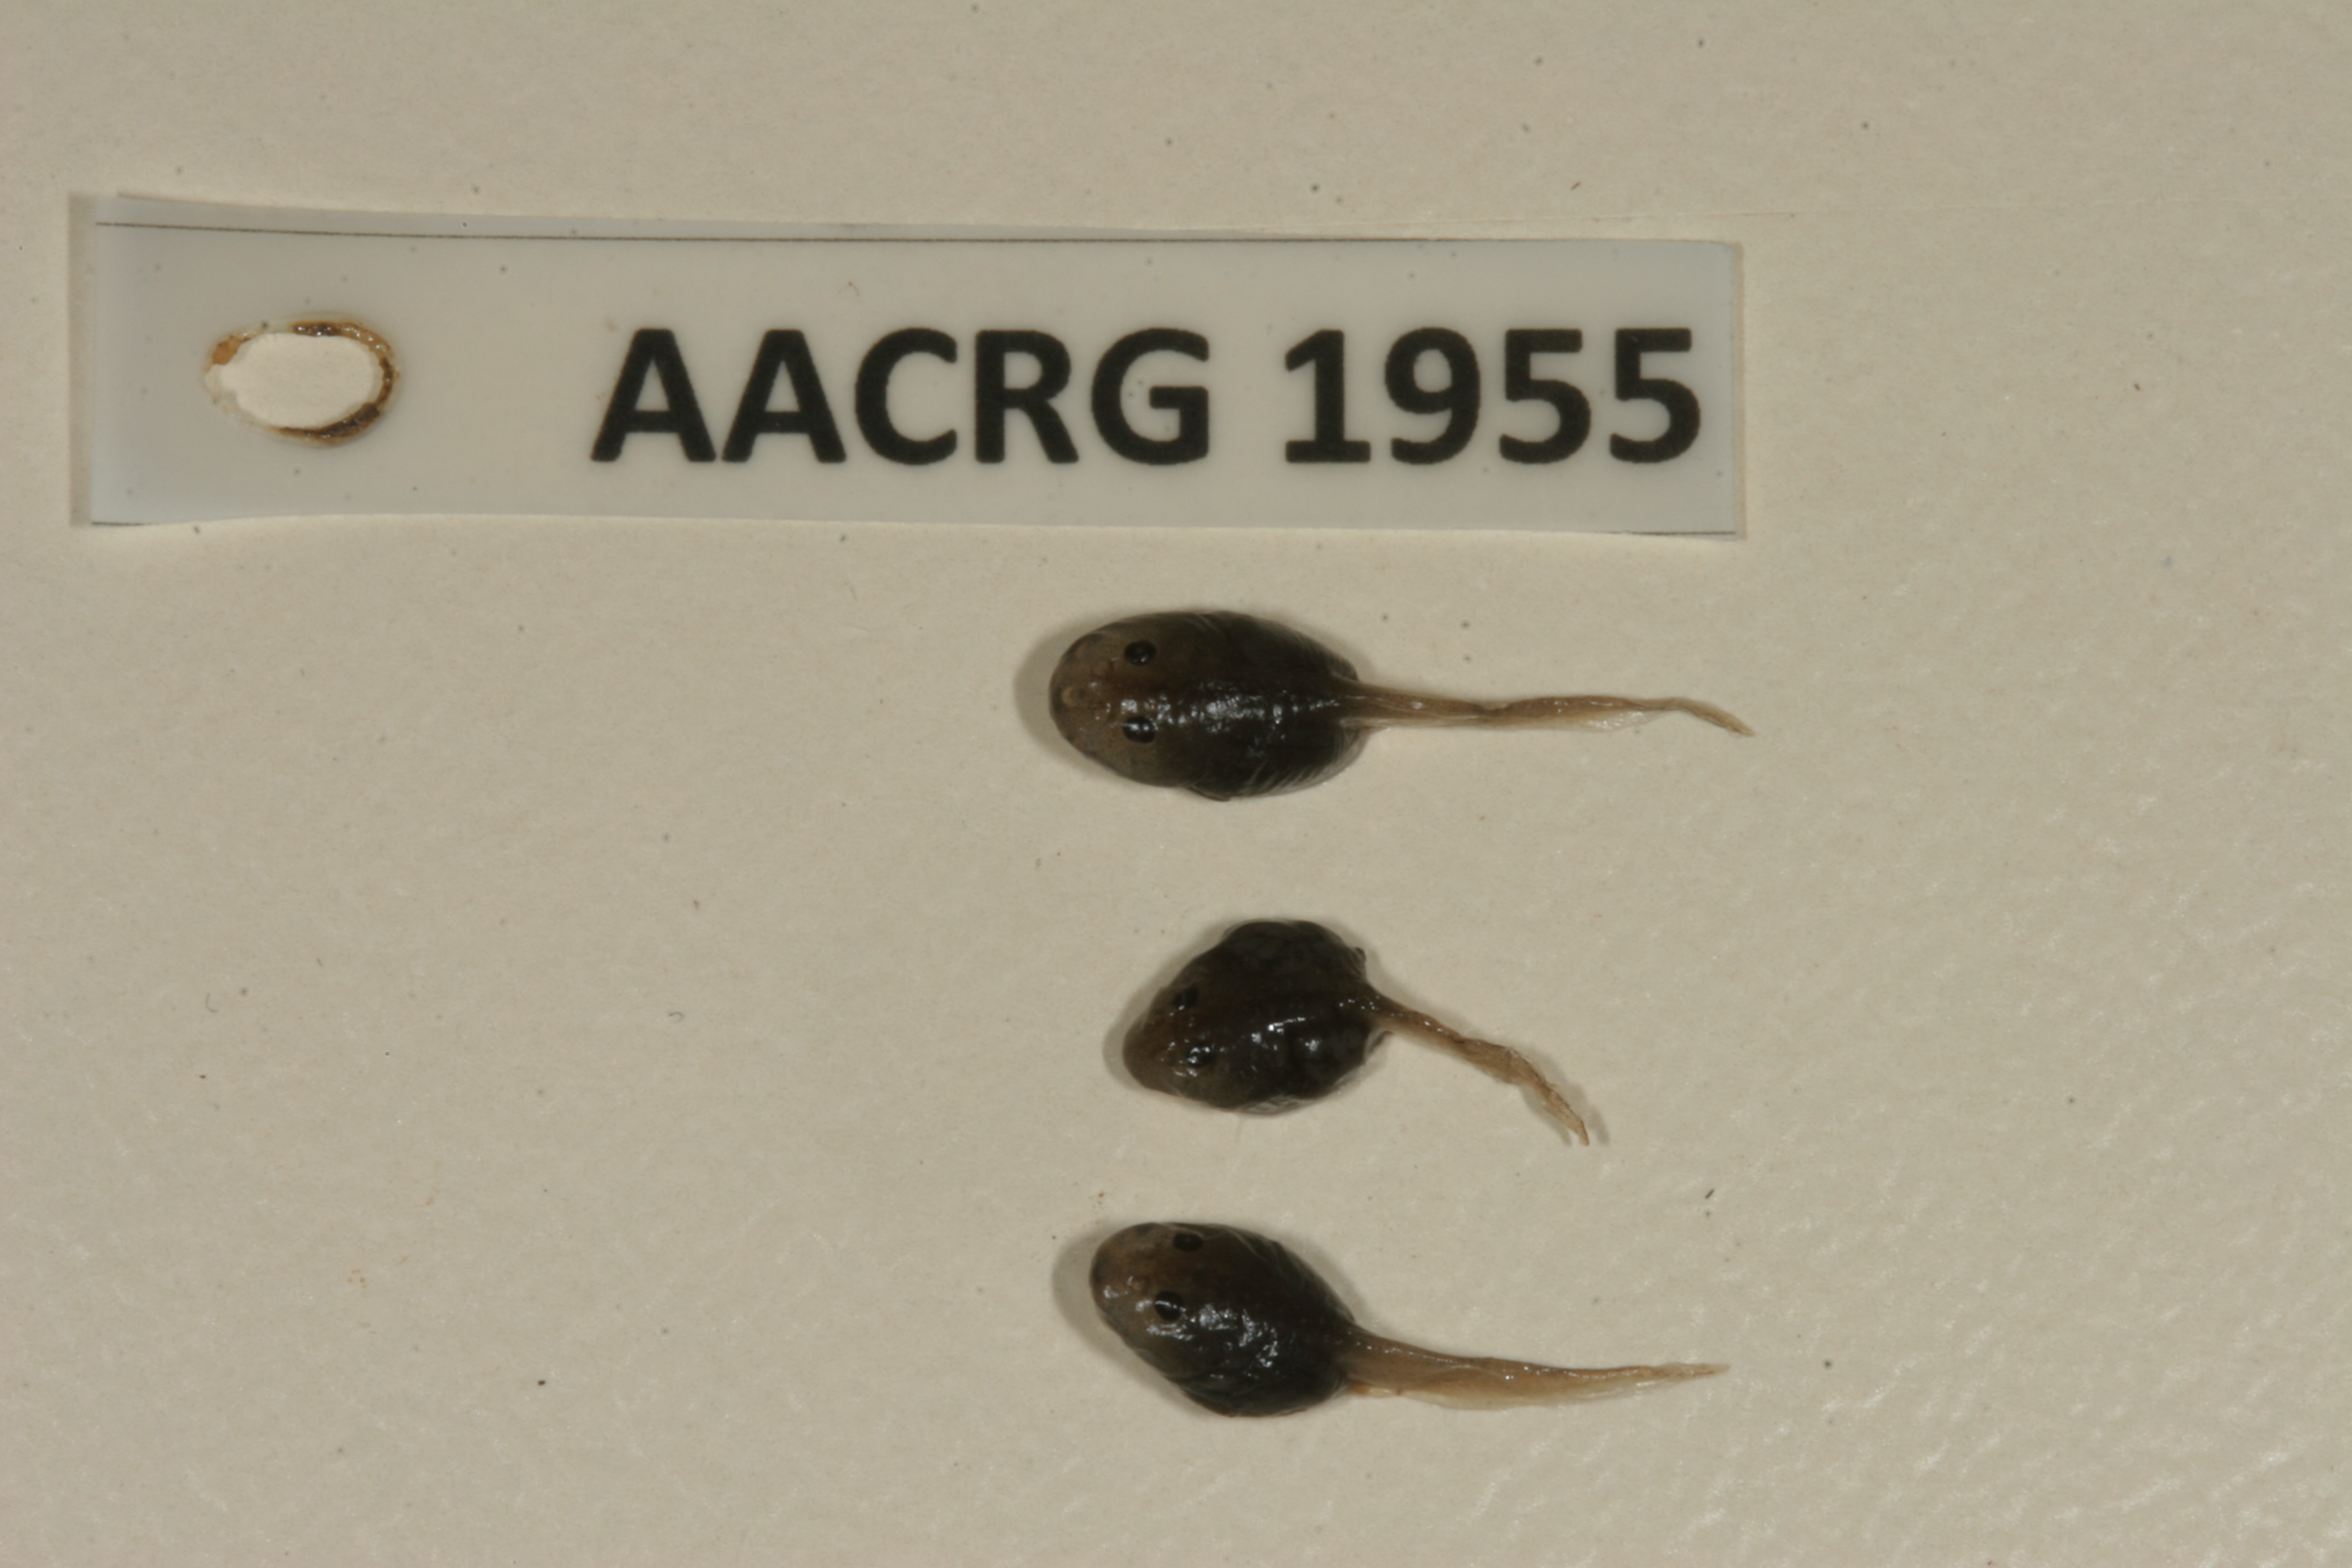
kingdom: Animalia
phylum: Chordata
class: Amphibia
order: Anura
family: Bufonidae
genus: Sclerophrys
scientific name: Sclerophrys poweri
